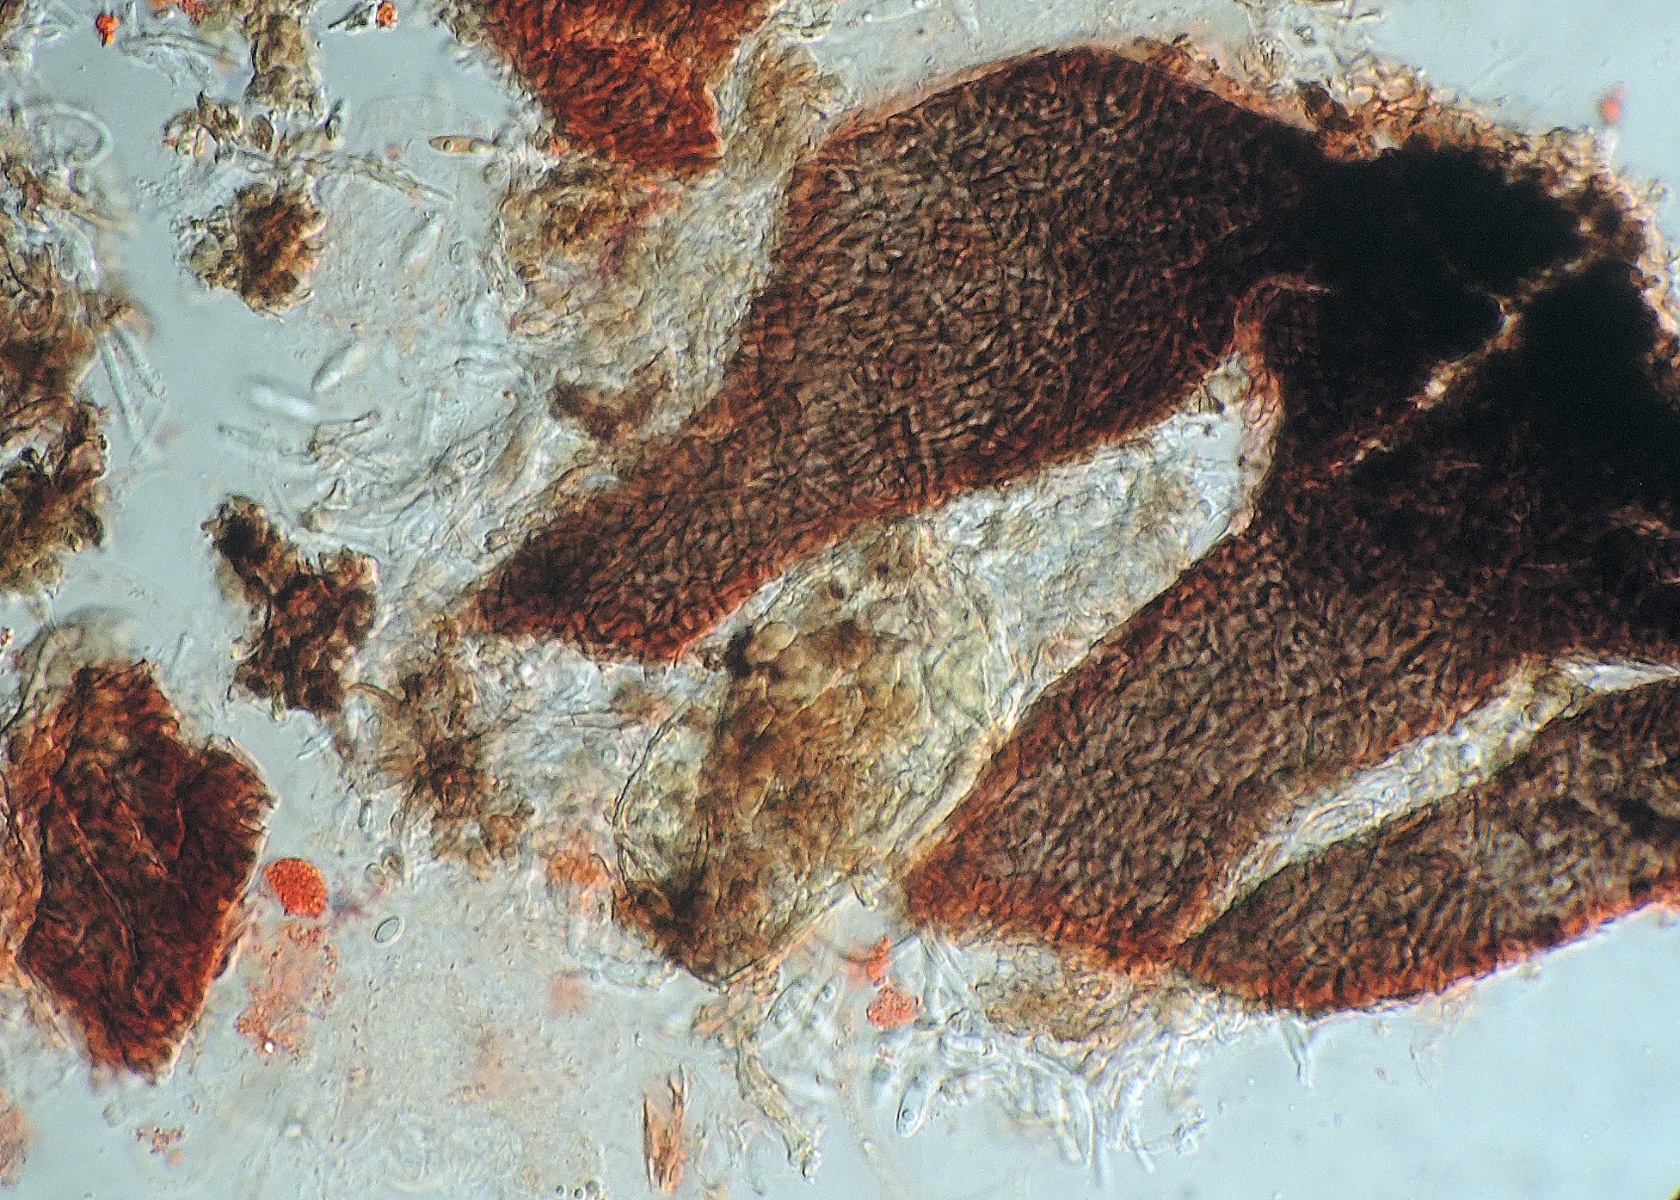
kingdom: Fungi
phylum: Ascomycota
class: Sordariomycetes
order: Phomatosporales
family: Phomatosporaceae
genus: Phomatospora
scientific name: Phomatospora dinemasporium
